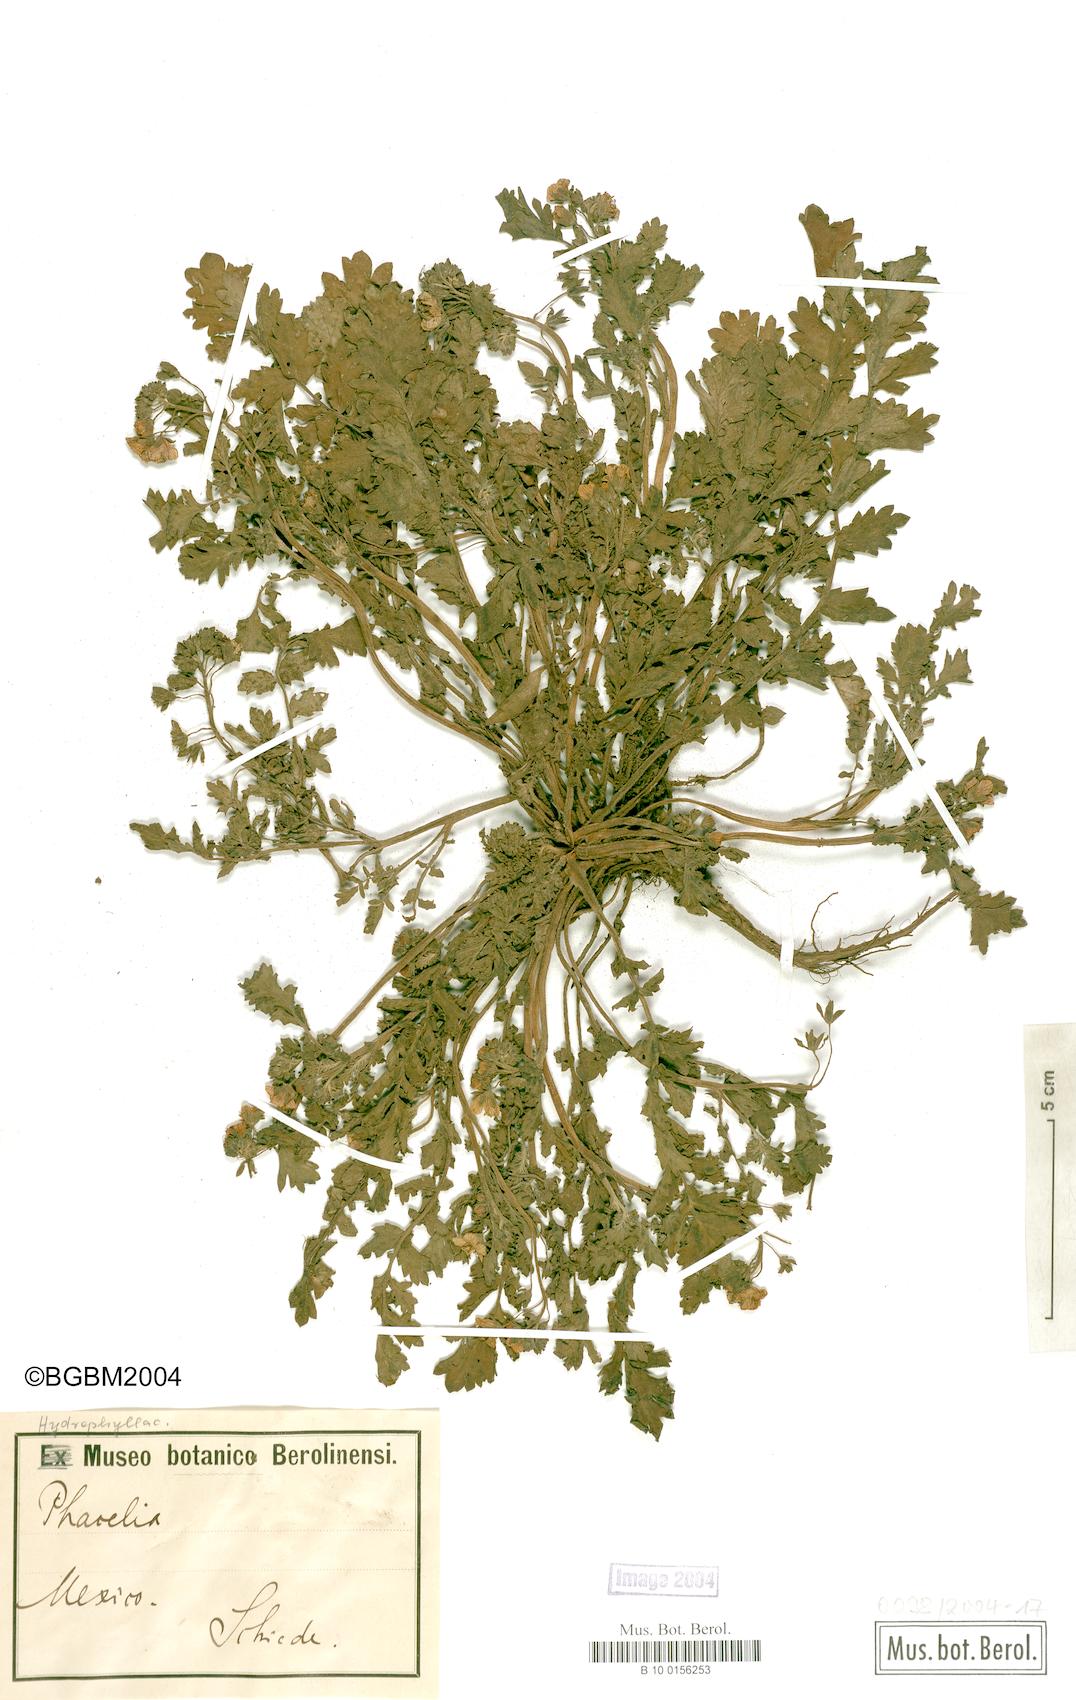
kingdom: Plantae
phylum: Tracheophyta
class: Magnoliopsida
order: Boraginales
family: Hydrophyllaceae
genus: Phacelia
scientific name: Phacelia
